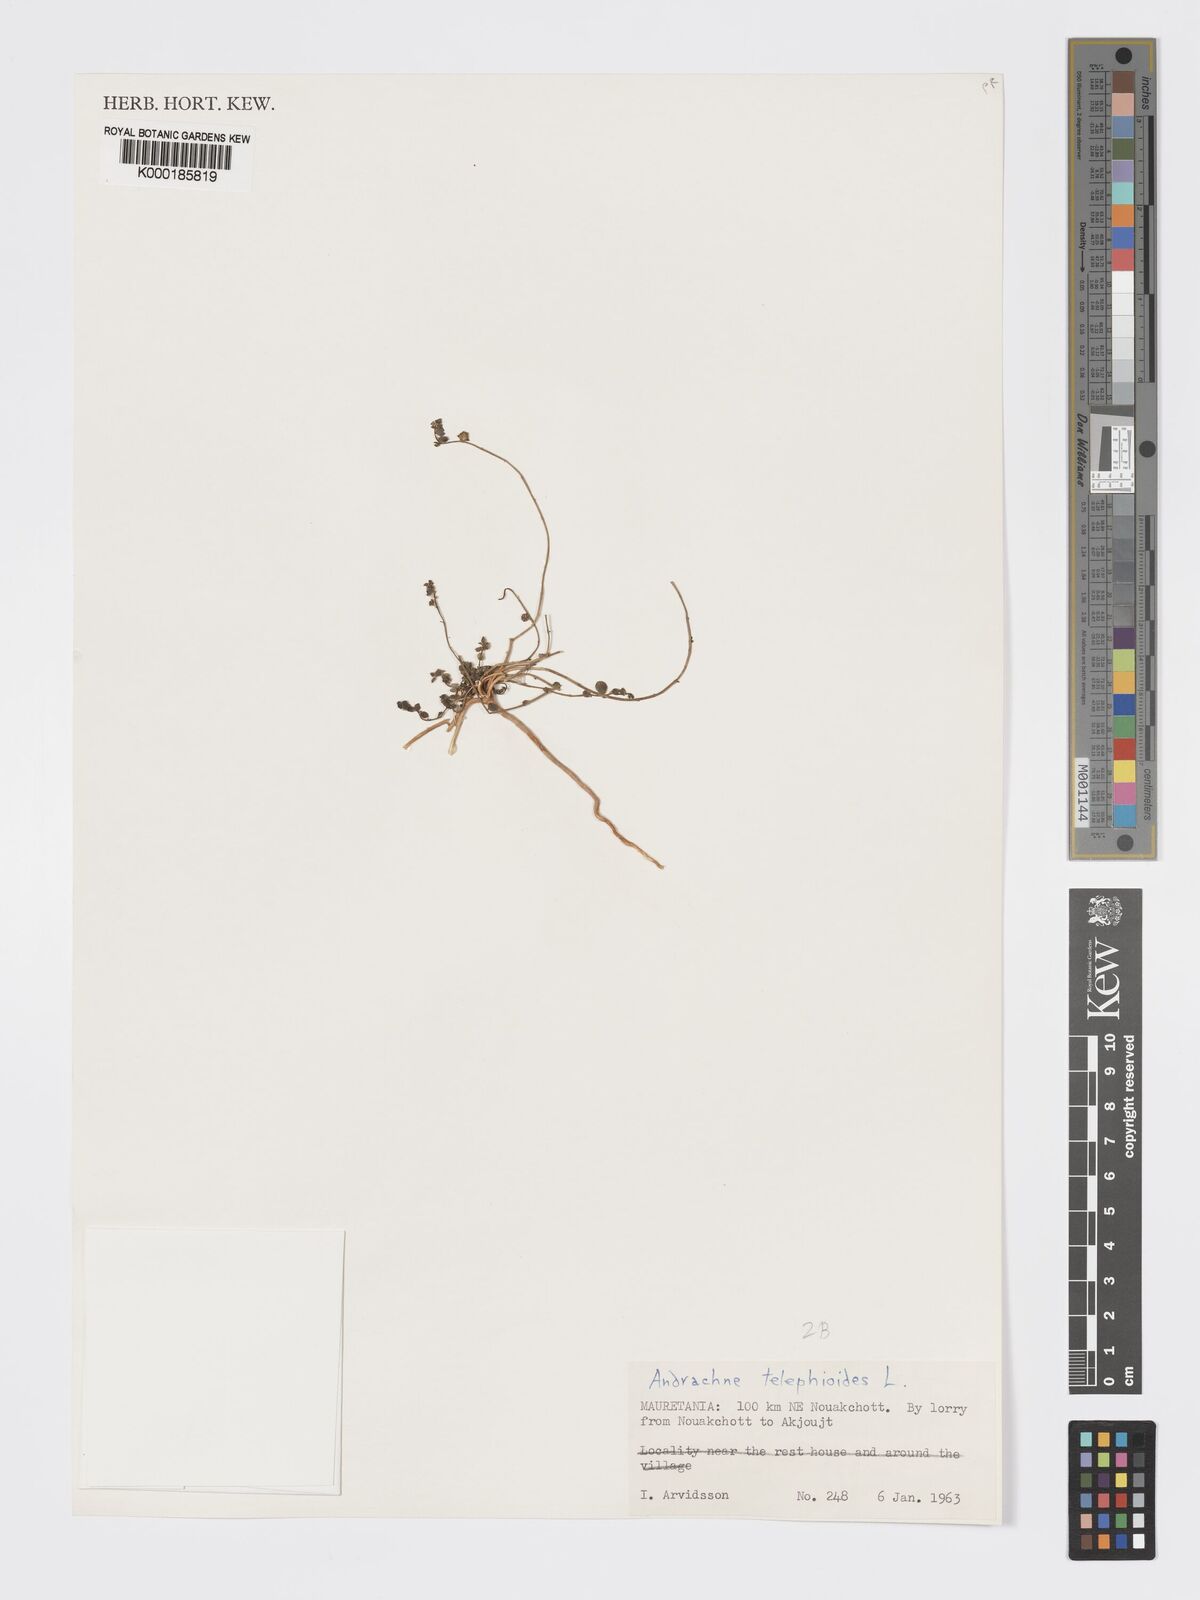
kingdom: Plantae
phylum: Tracheophyta
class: Magnoliopsida
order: Malpighiales
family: Phyllanthaceae
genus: Andrachne
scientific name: Andrachne telephioides
